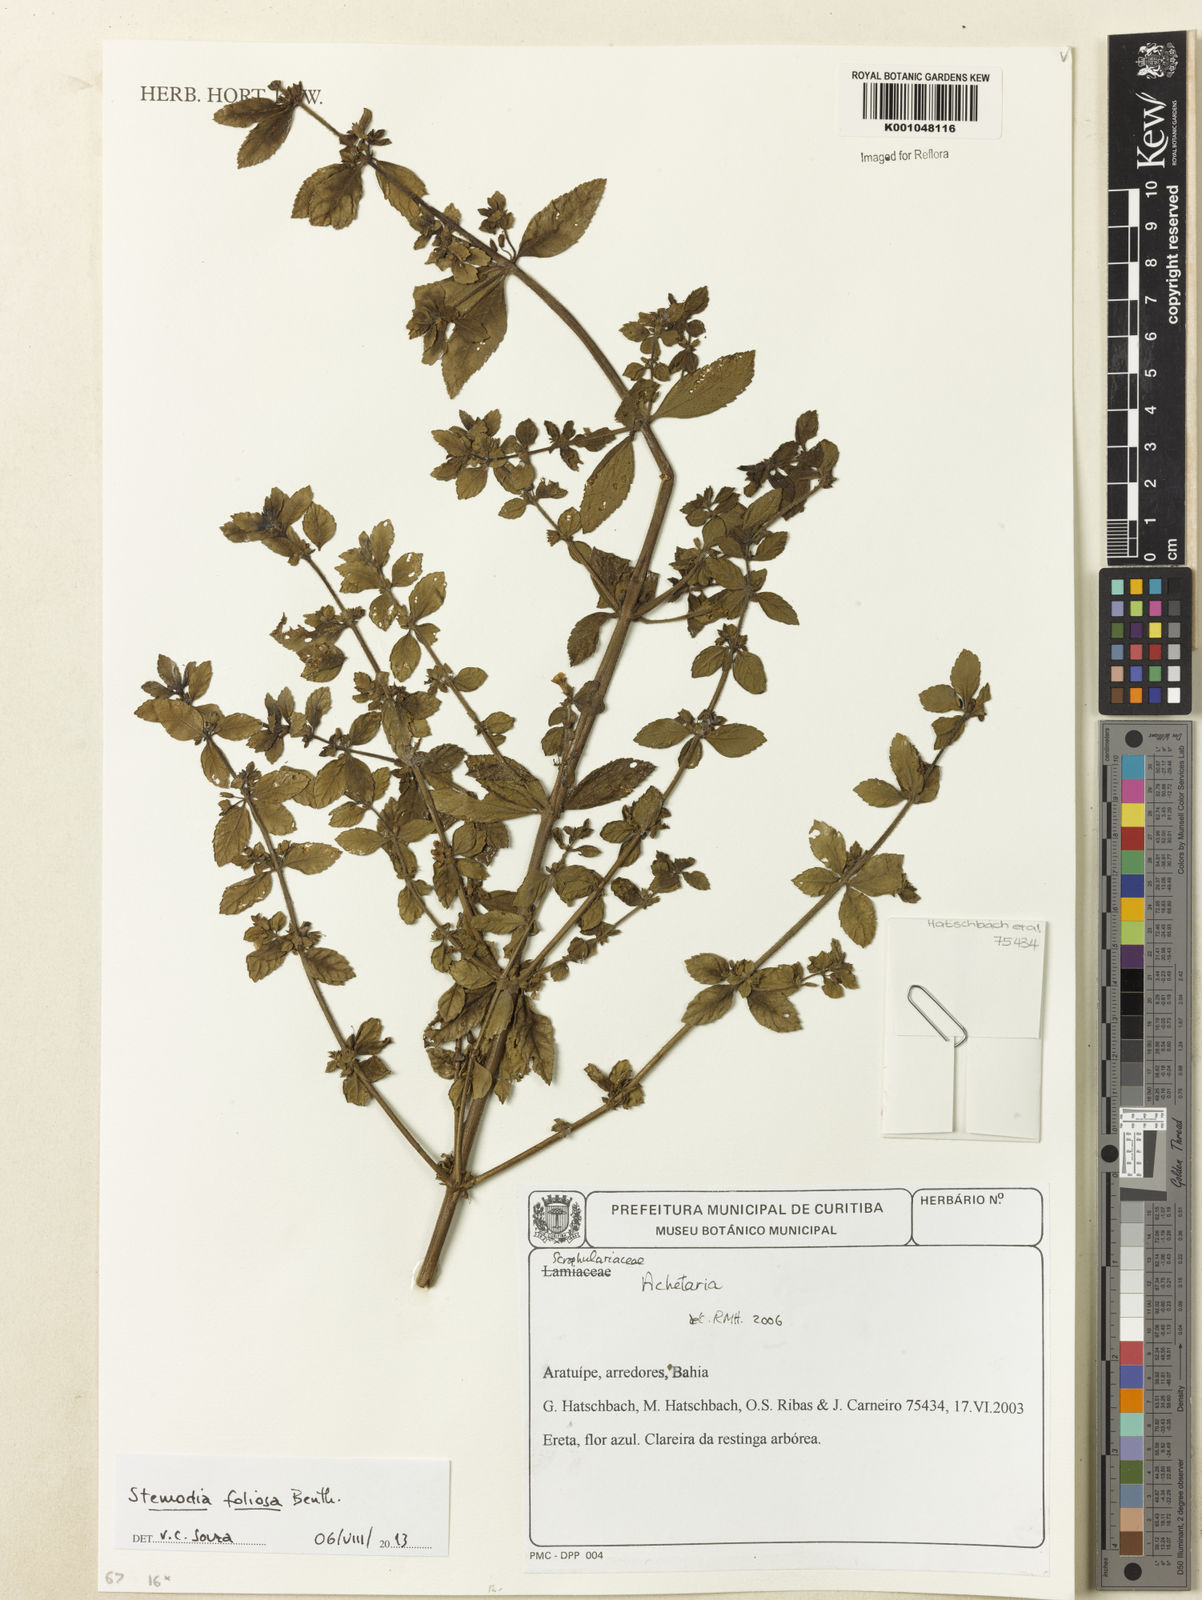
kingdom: Plantae
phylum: Tracheophyta
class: Magnoliopsida
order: Lamiales
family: Plantaginaceae
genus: Stemodia
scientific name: Stemodia foliosa
